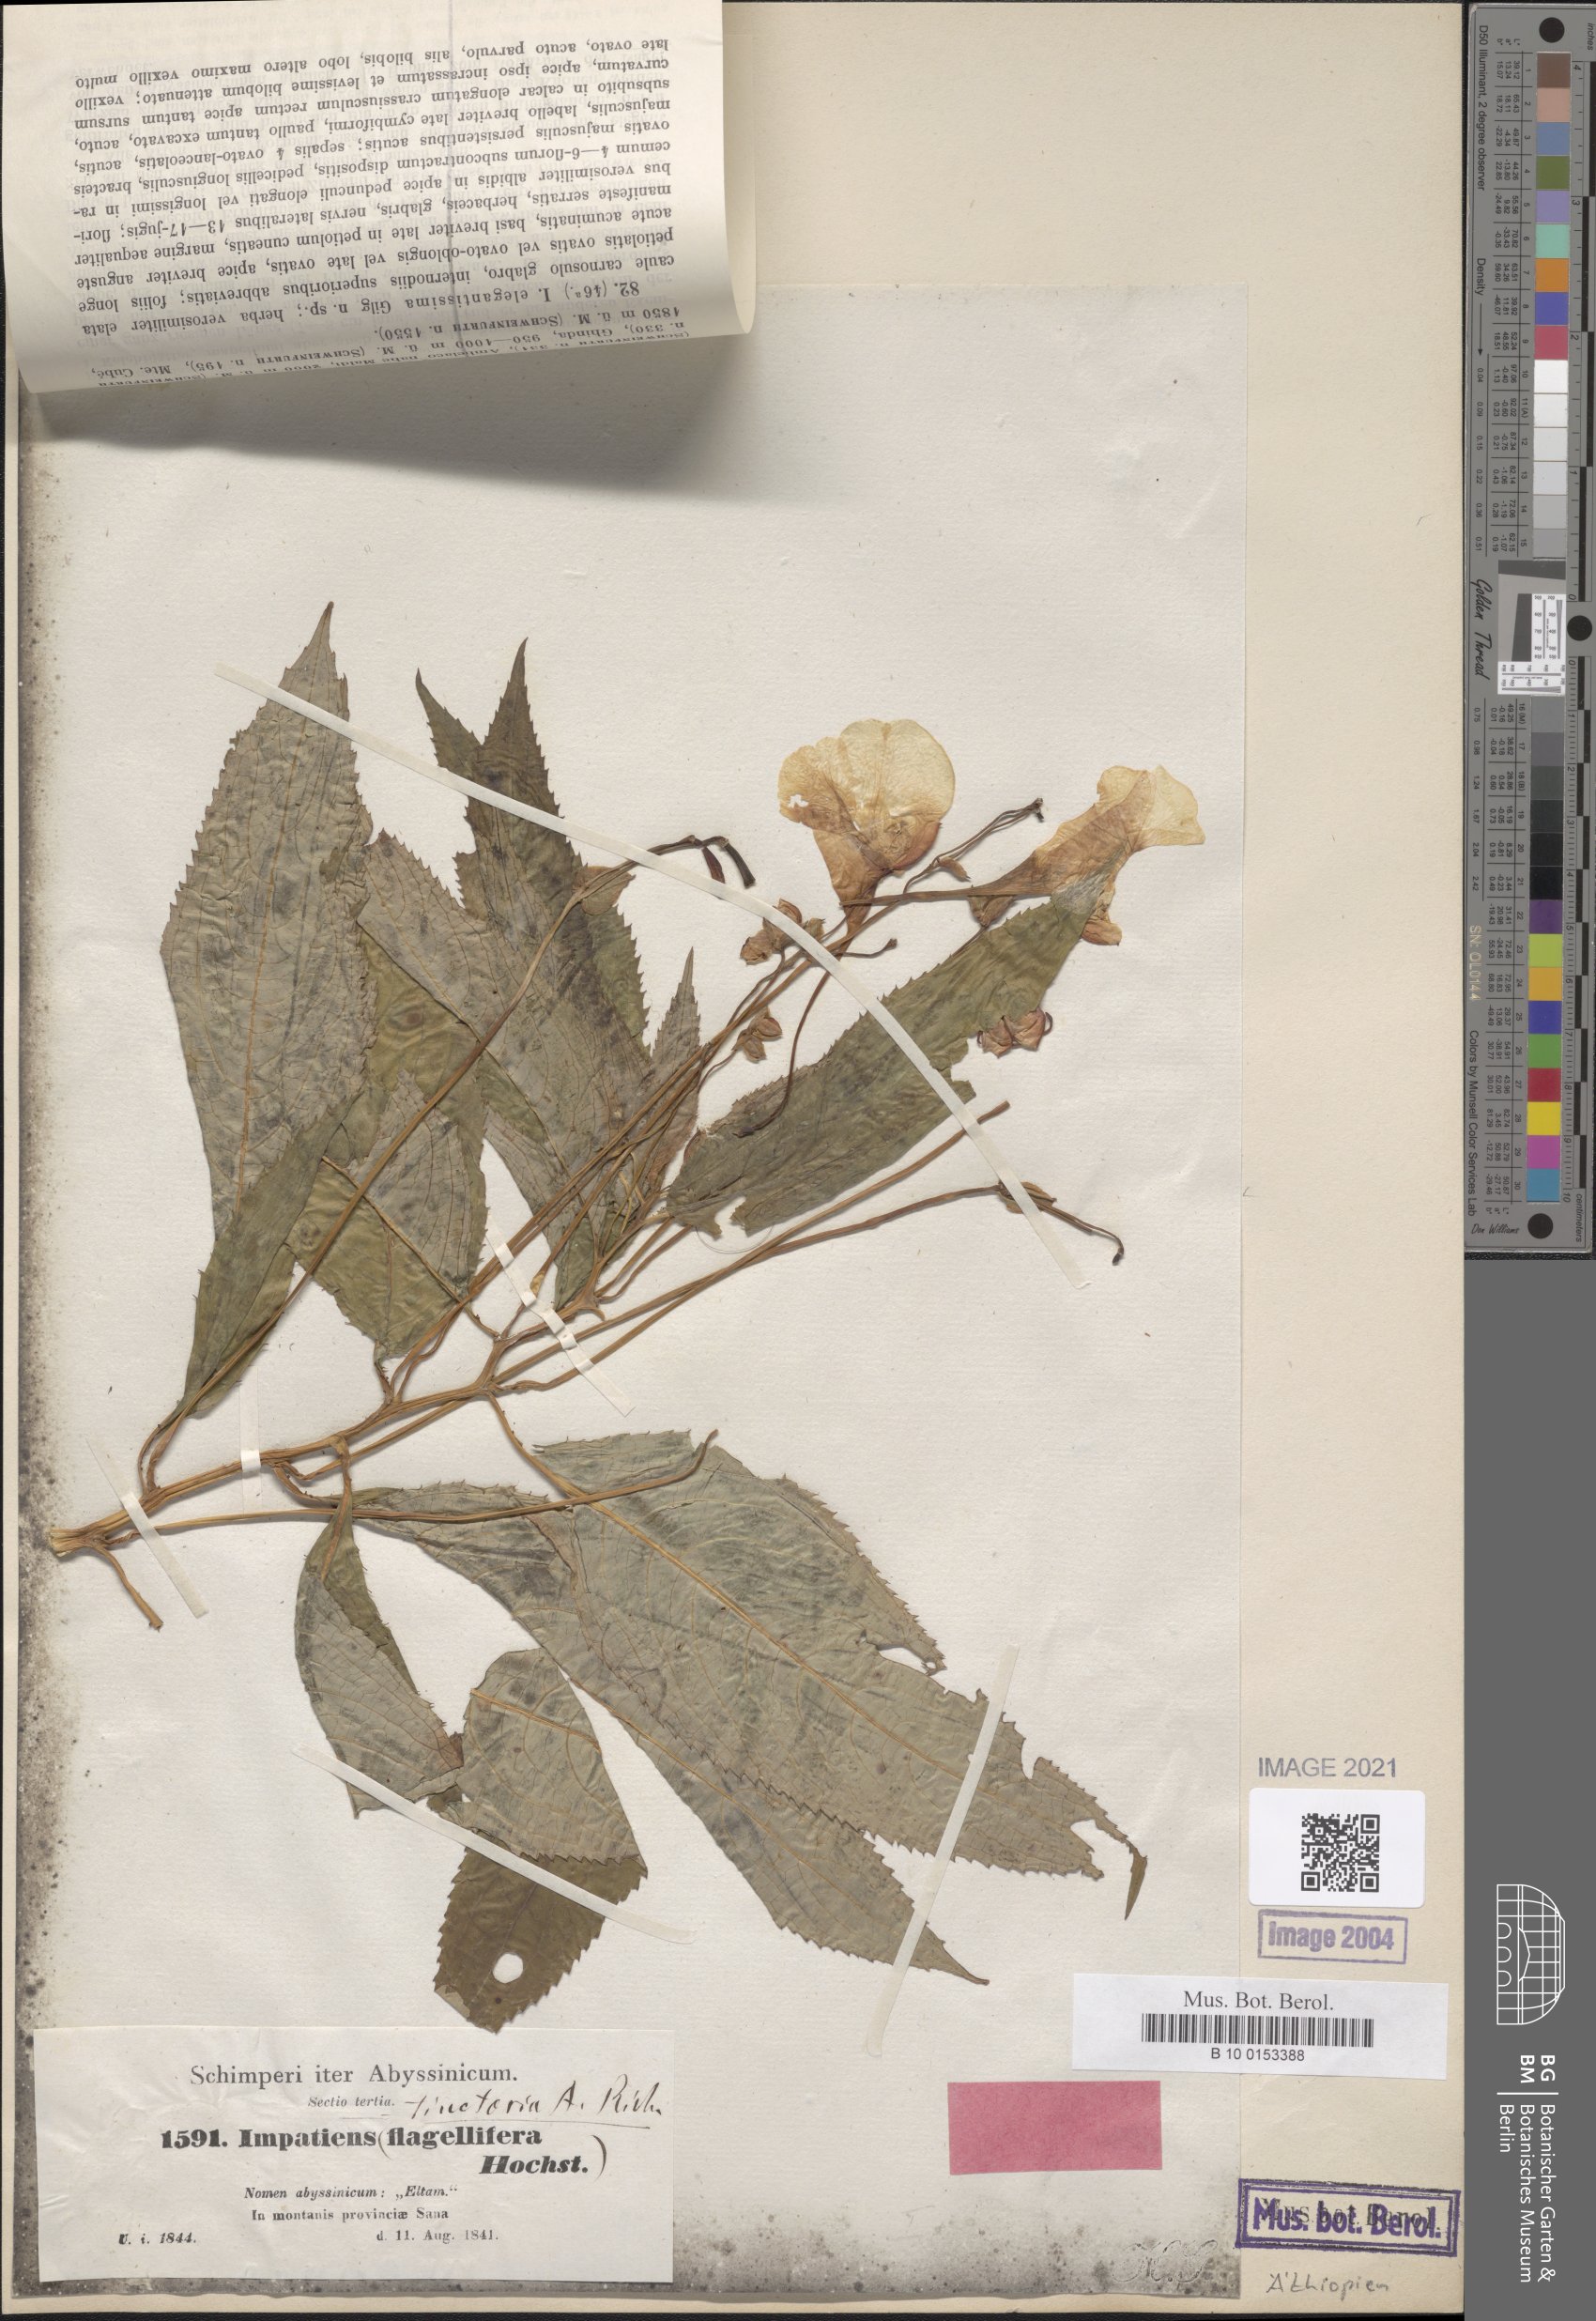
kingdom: Plantae
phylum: Tracheophyta
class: Magnoliopsida
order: Ericales
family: Balsaminaceae
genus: Impatiens
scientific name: Impatiens tinctoria
